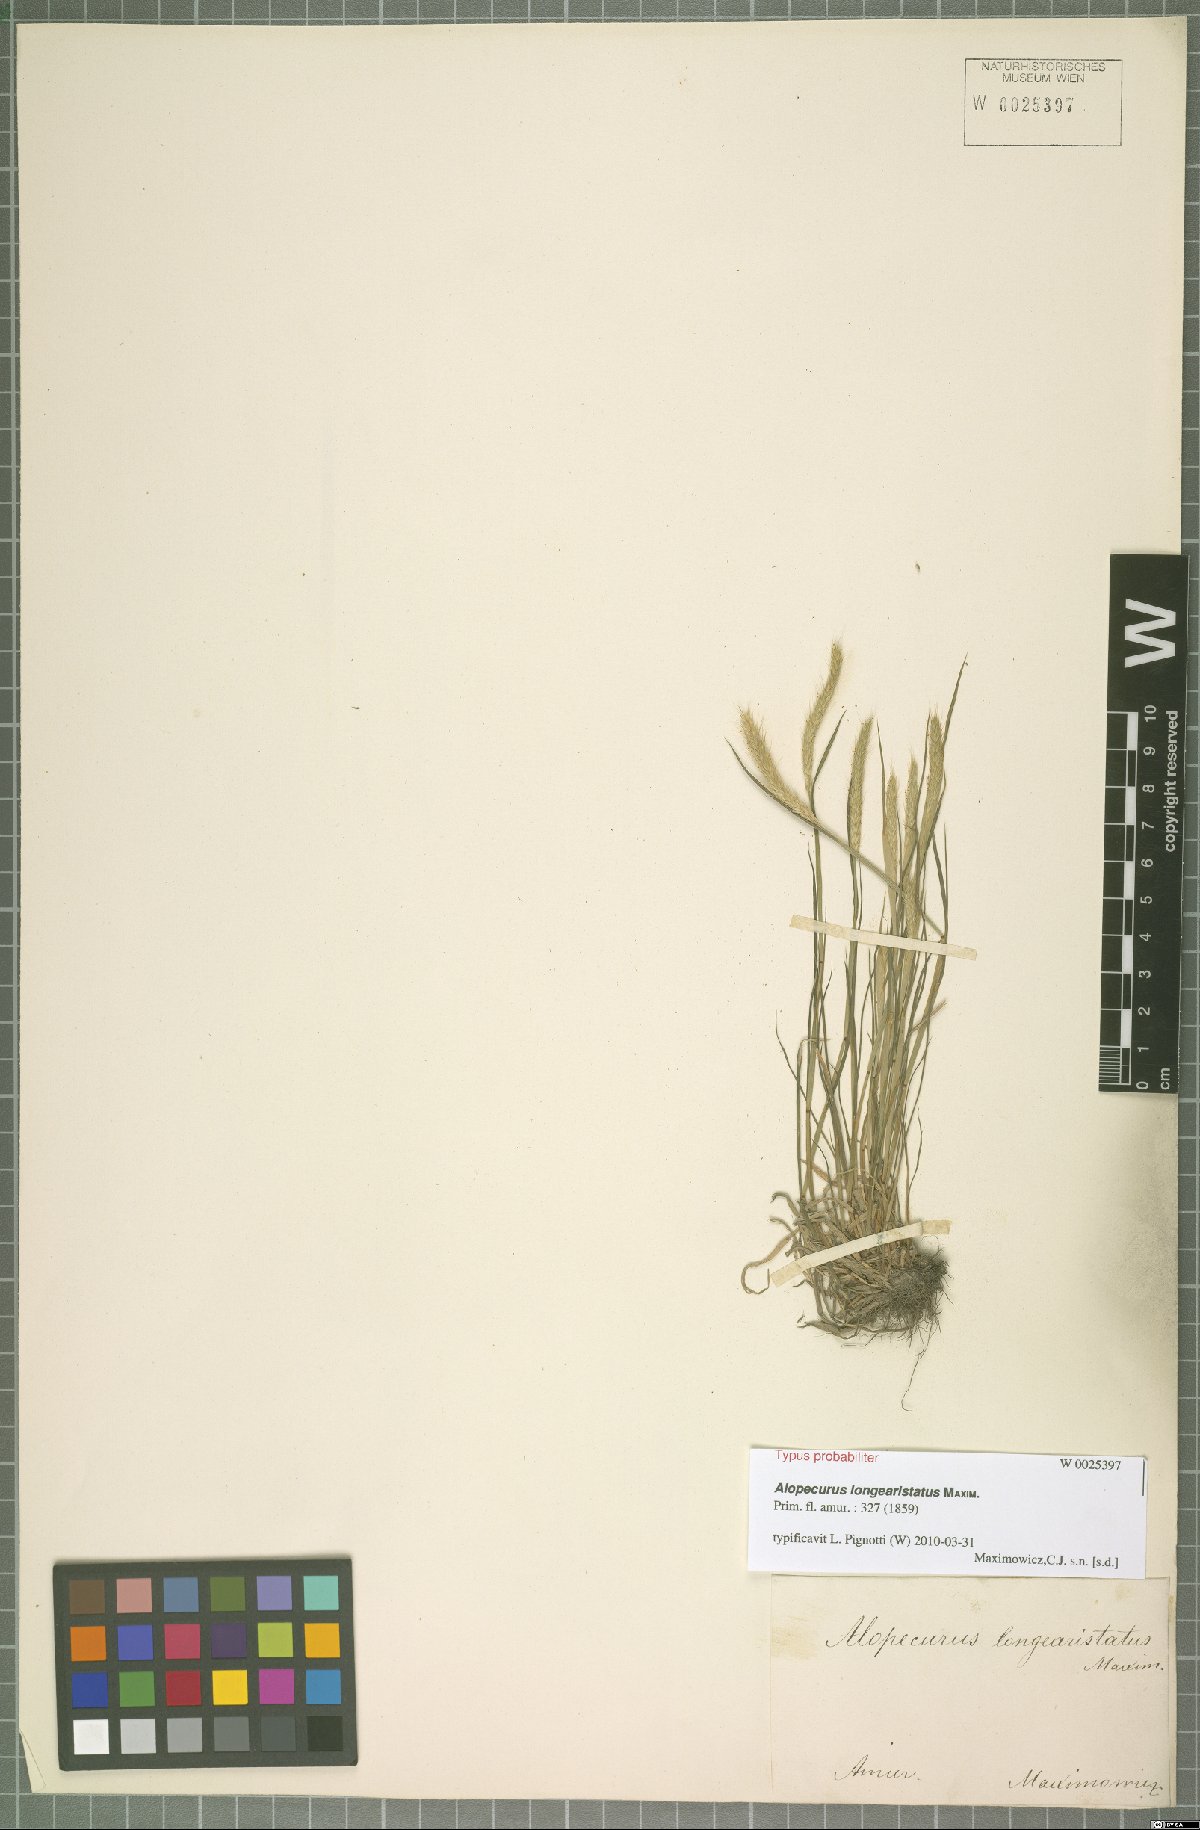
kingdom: Plantae
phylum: Tracheophyta
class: Liliopsida
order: Poales
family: Poaceae
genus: Alopecurus
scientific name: Alopecurus longearistatus
